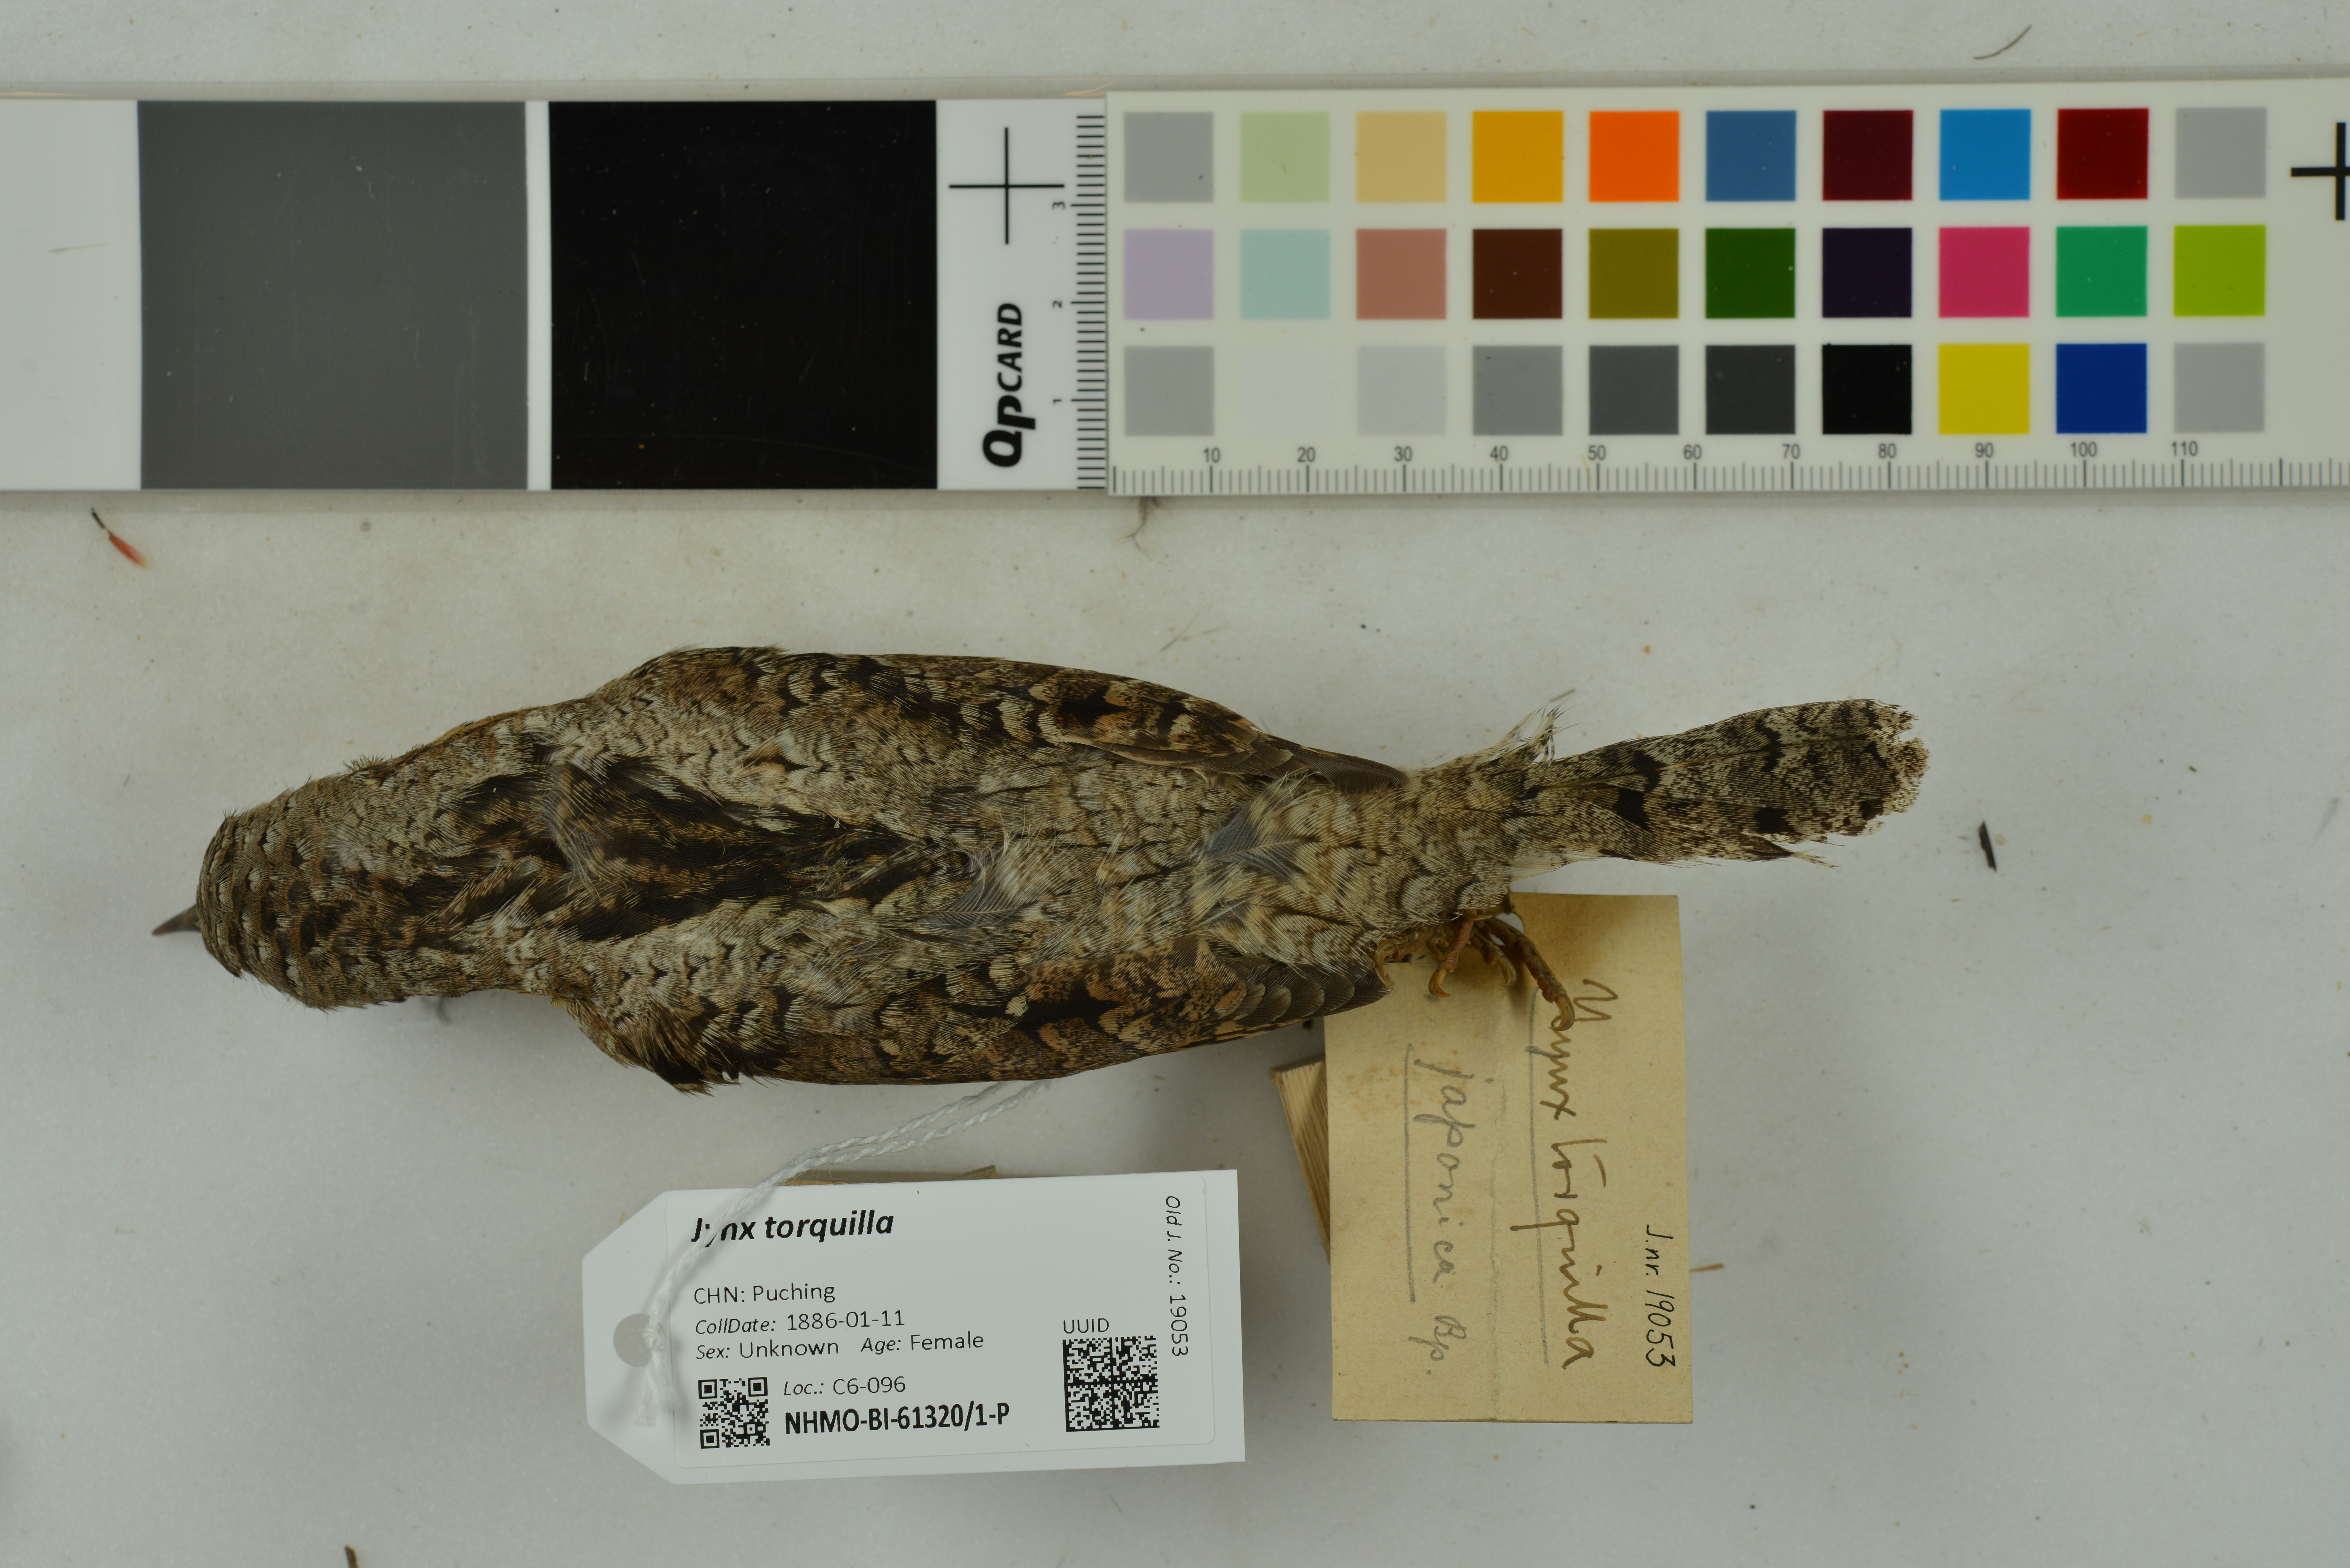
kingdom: Animalia
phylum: Chordata
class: Aves
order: Piciformes
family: Picidae
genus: Jynx
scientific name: Jynx torquilla
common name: Eurasian wryneck
